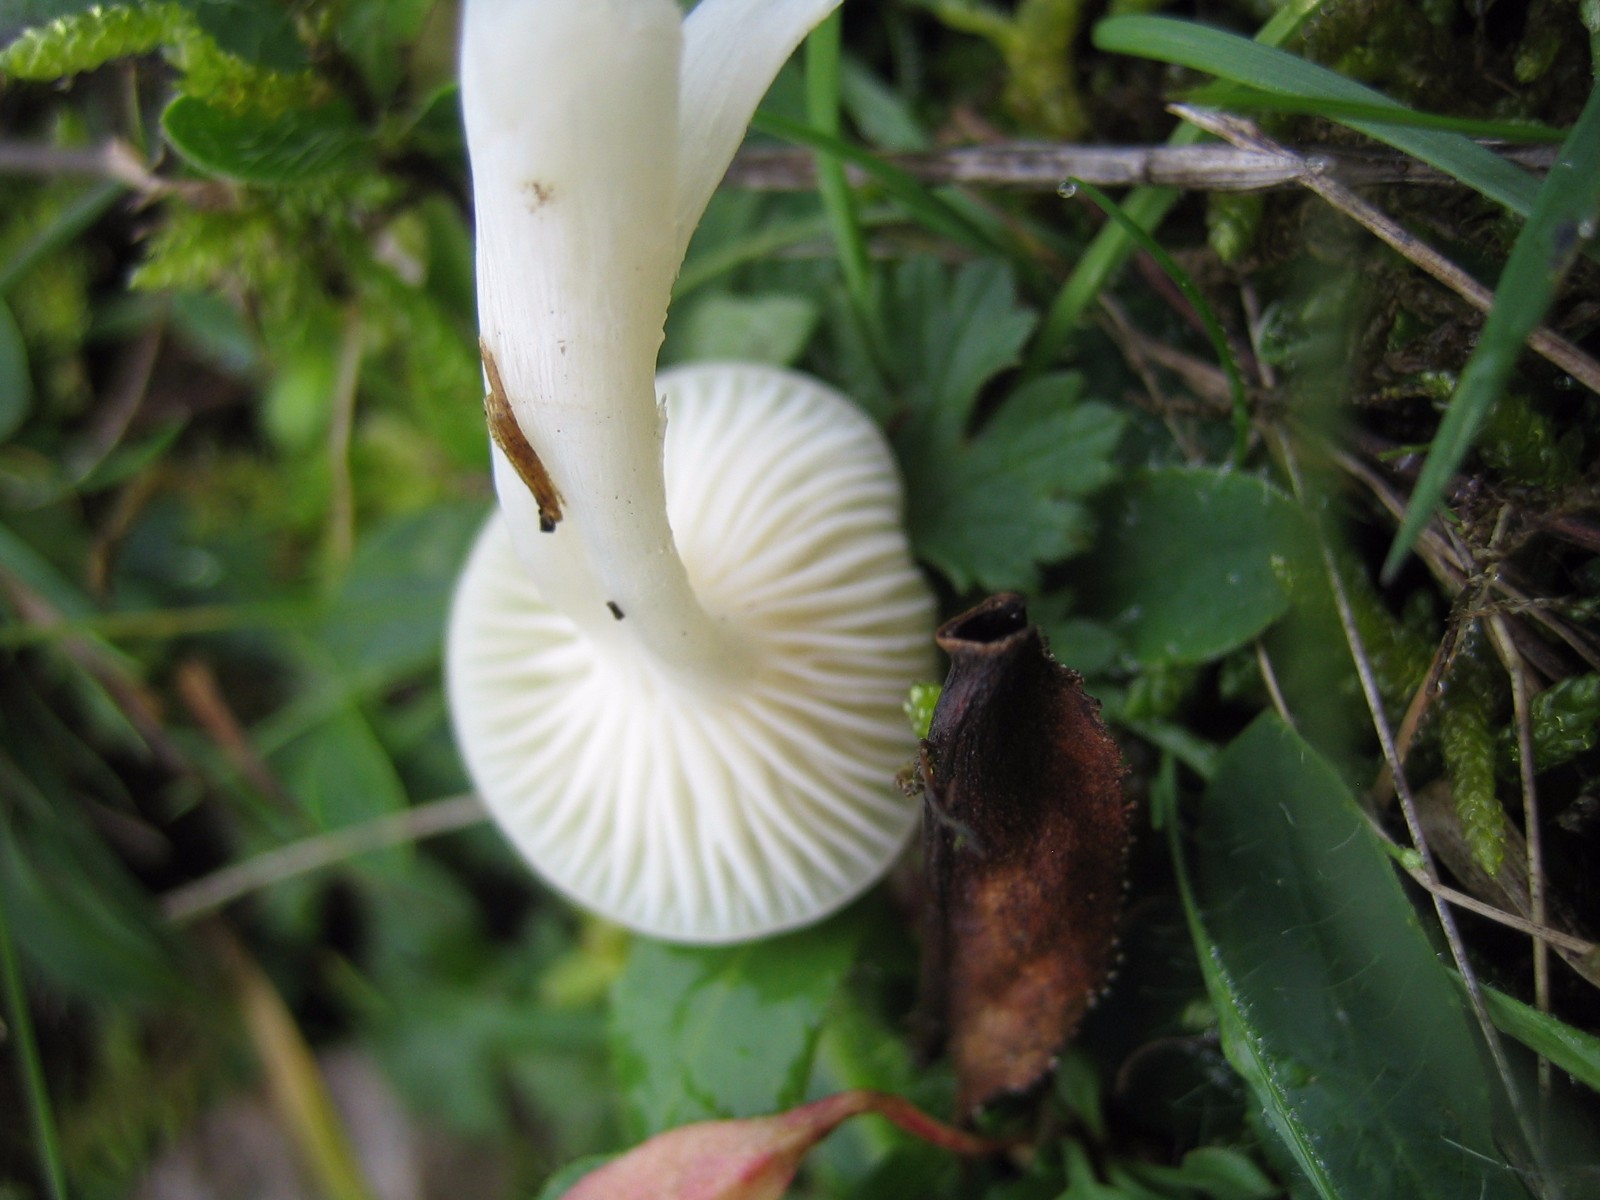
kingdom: Fungi
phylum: Basidiomycota
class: Agaricomycetes
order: Agaricales
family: Hygrophoraceae
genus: Cuphophyllus
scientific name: Cuphophyllus virgineus
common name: snehvid vokshat
